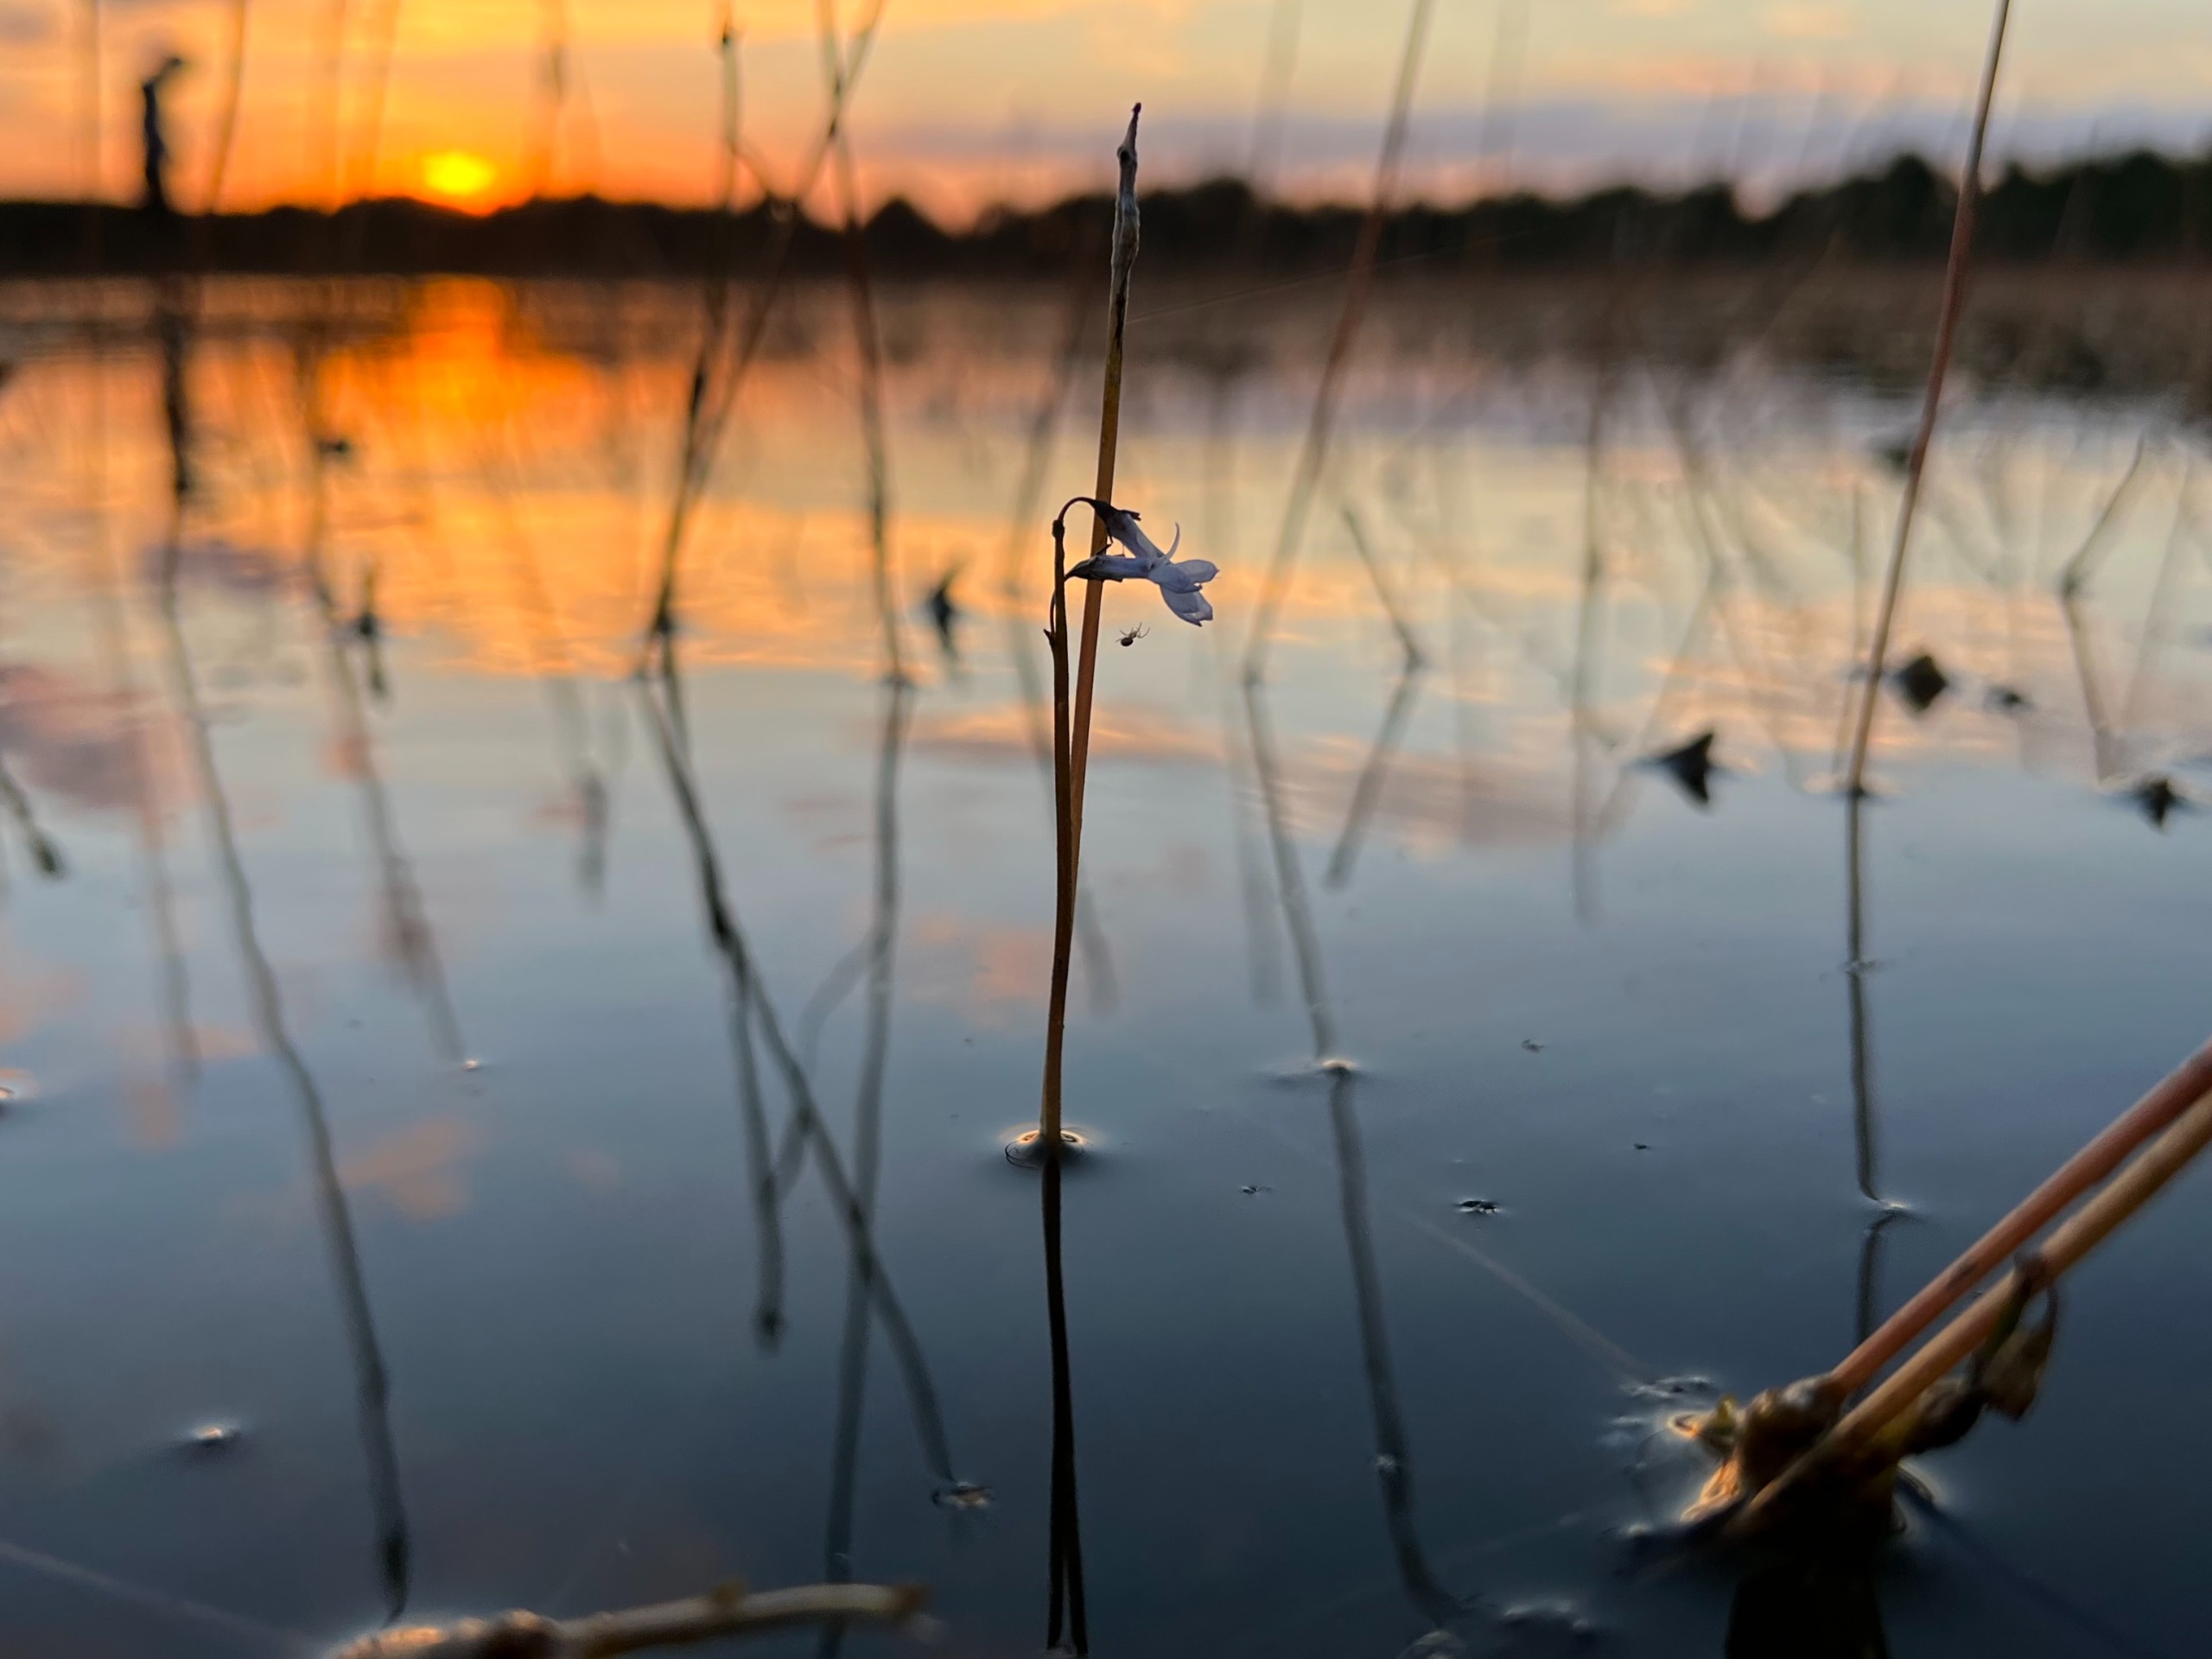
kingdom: Plantae
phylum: Tracheophyta
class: Magnoliopsida
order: Asterales
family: Campanulaceae
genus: Lobelia
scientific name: Lobelia dortmanna
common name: Tvepibet lobelie
